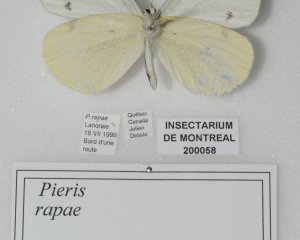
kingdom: Animalia
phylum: Arthropoda
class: Insecta
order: Lepidoptera
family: Pieridae
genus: Pieris
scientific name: Pieris rapae
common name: Cabbage White
